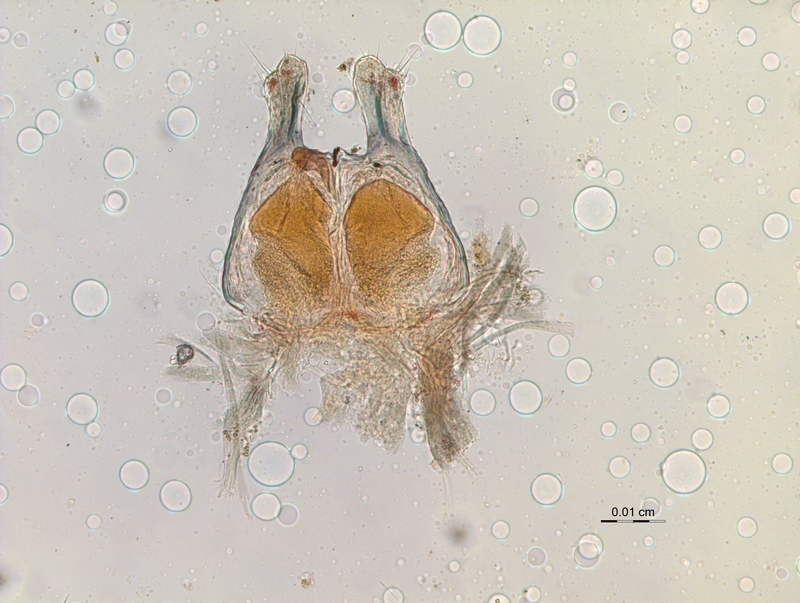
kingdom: Animalia
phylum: Arthropoda
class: Diplopoda
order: Chordeumatida
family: Chordeumatidae
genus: Microchordeuma
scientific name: Microchordeuma
